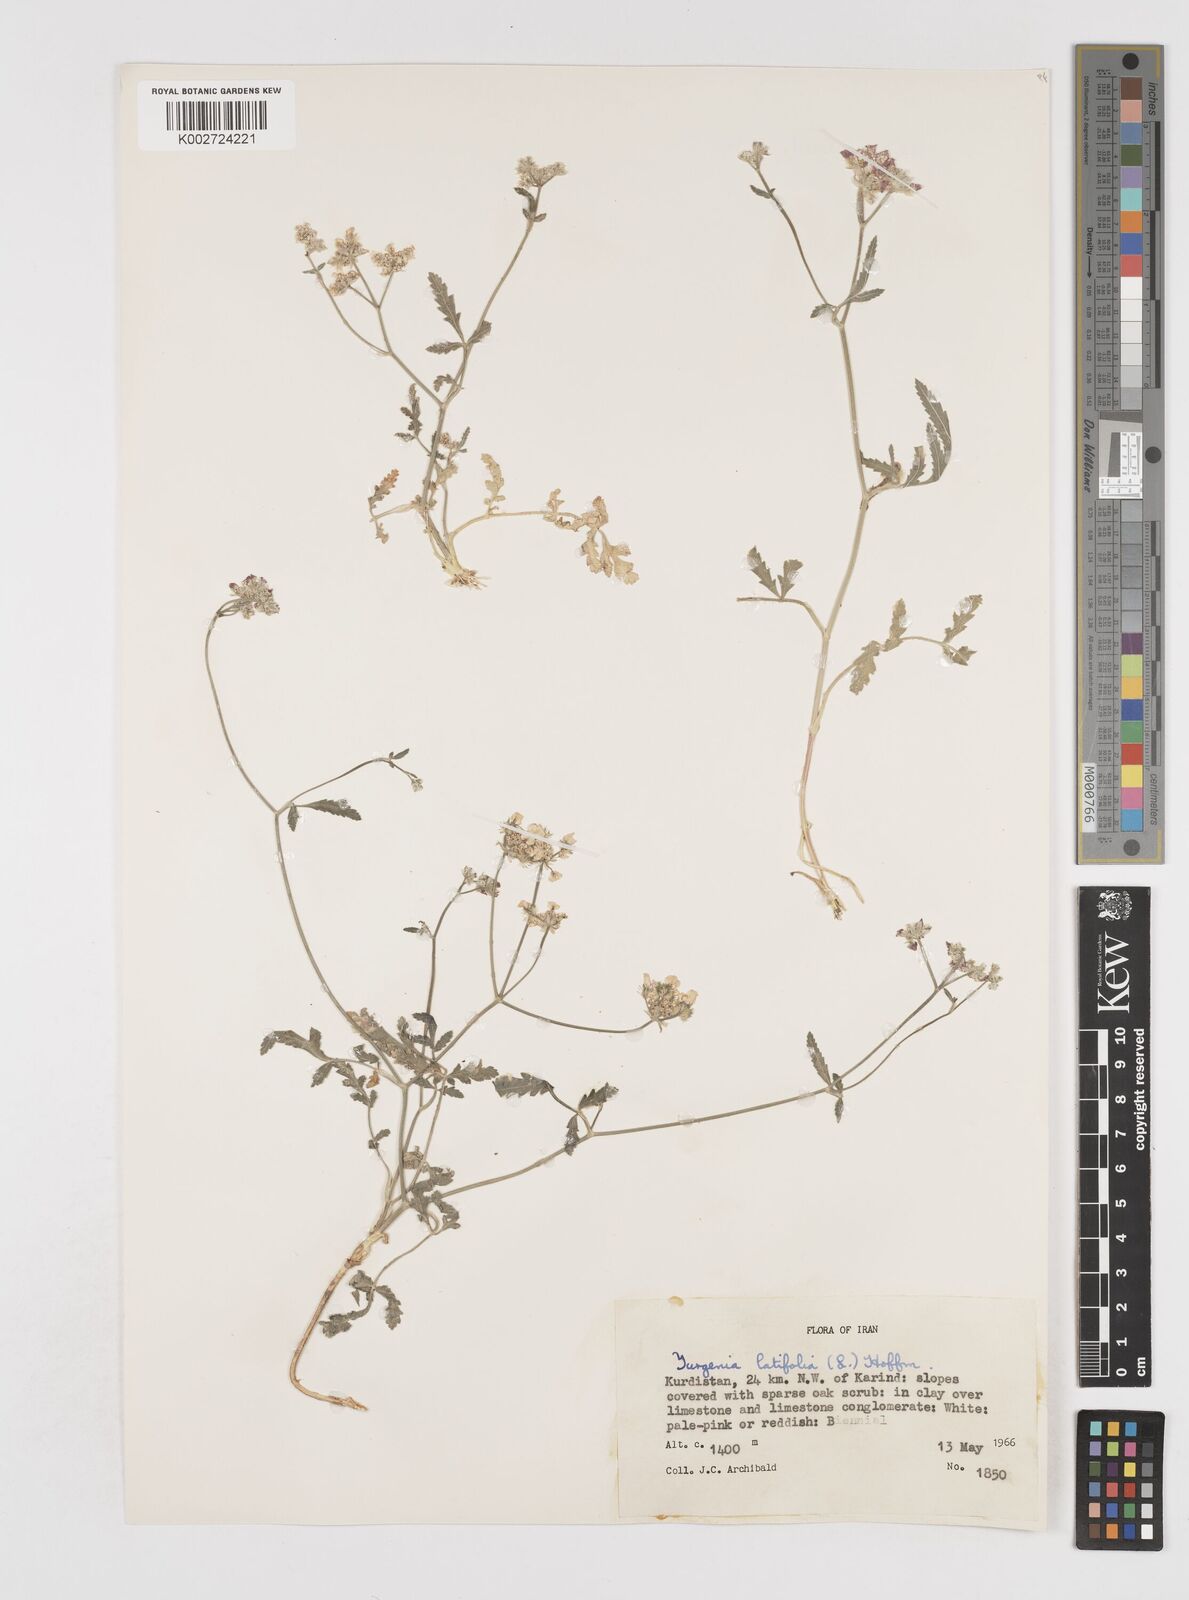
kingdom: Plantae
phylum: Tracheophyta
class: Magnoliopsida
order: Apiales
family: Apiaceae
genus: Turgenia
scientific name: Turgenia latifolia
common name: Greater bur-parsley
